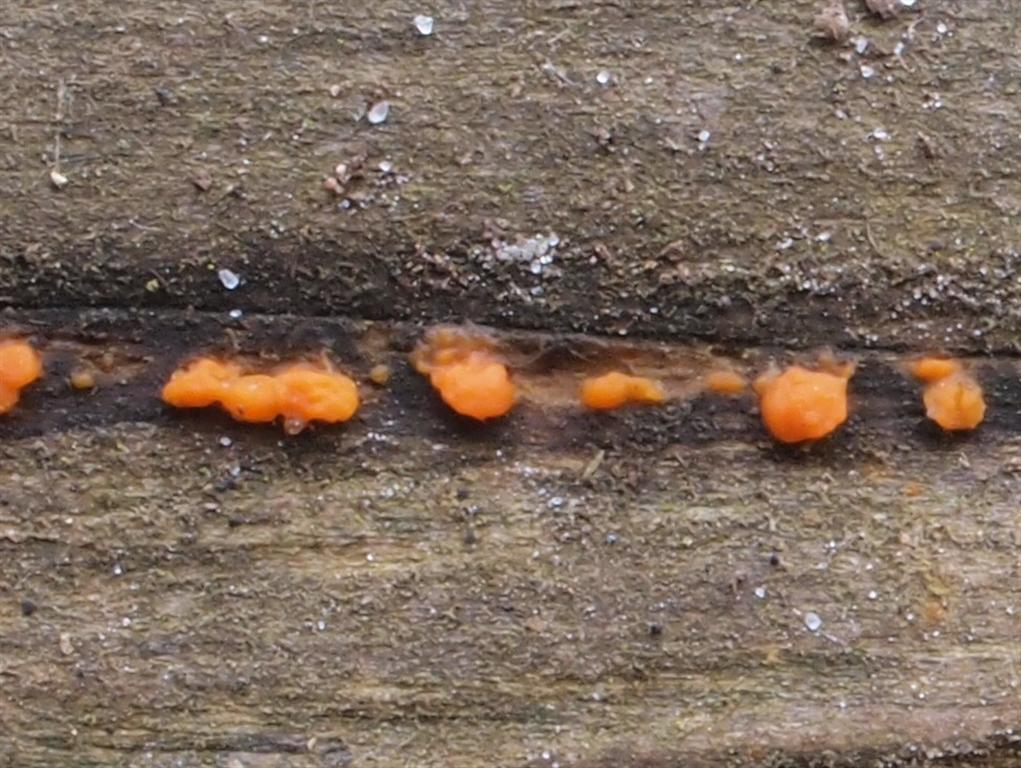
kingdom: Fungi
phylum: Basidiomycota
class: Dacrymycetes
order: Dacrymycetales
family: Dacrymycetaceae
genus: Dacrymyces
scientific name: Dacrymyces stillatus
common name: almindelig tåresvamp
